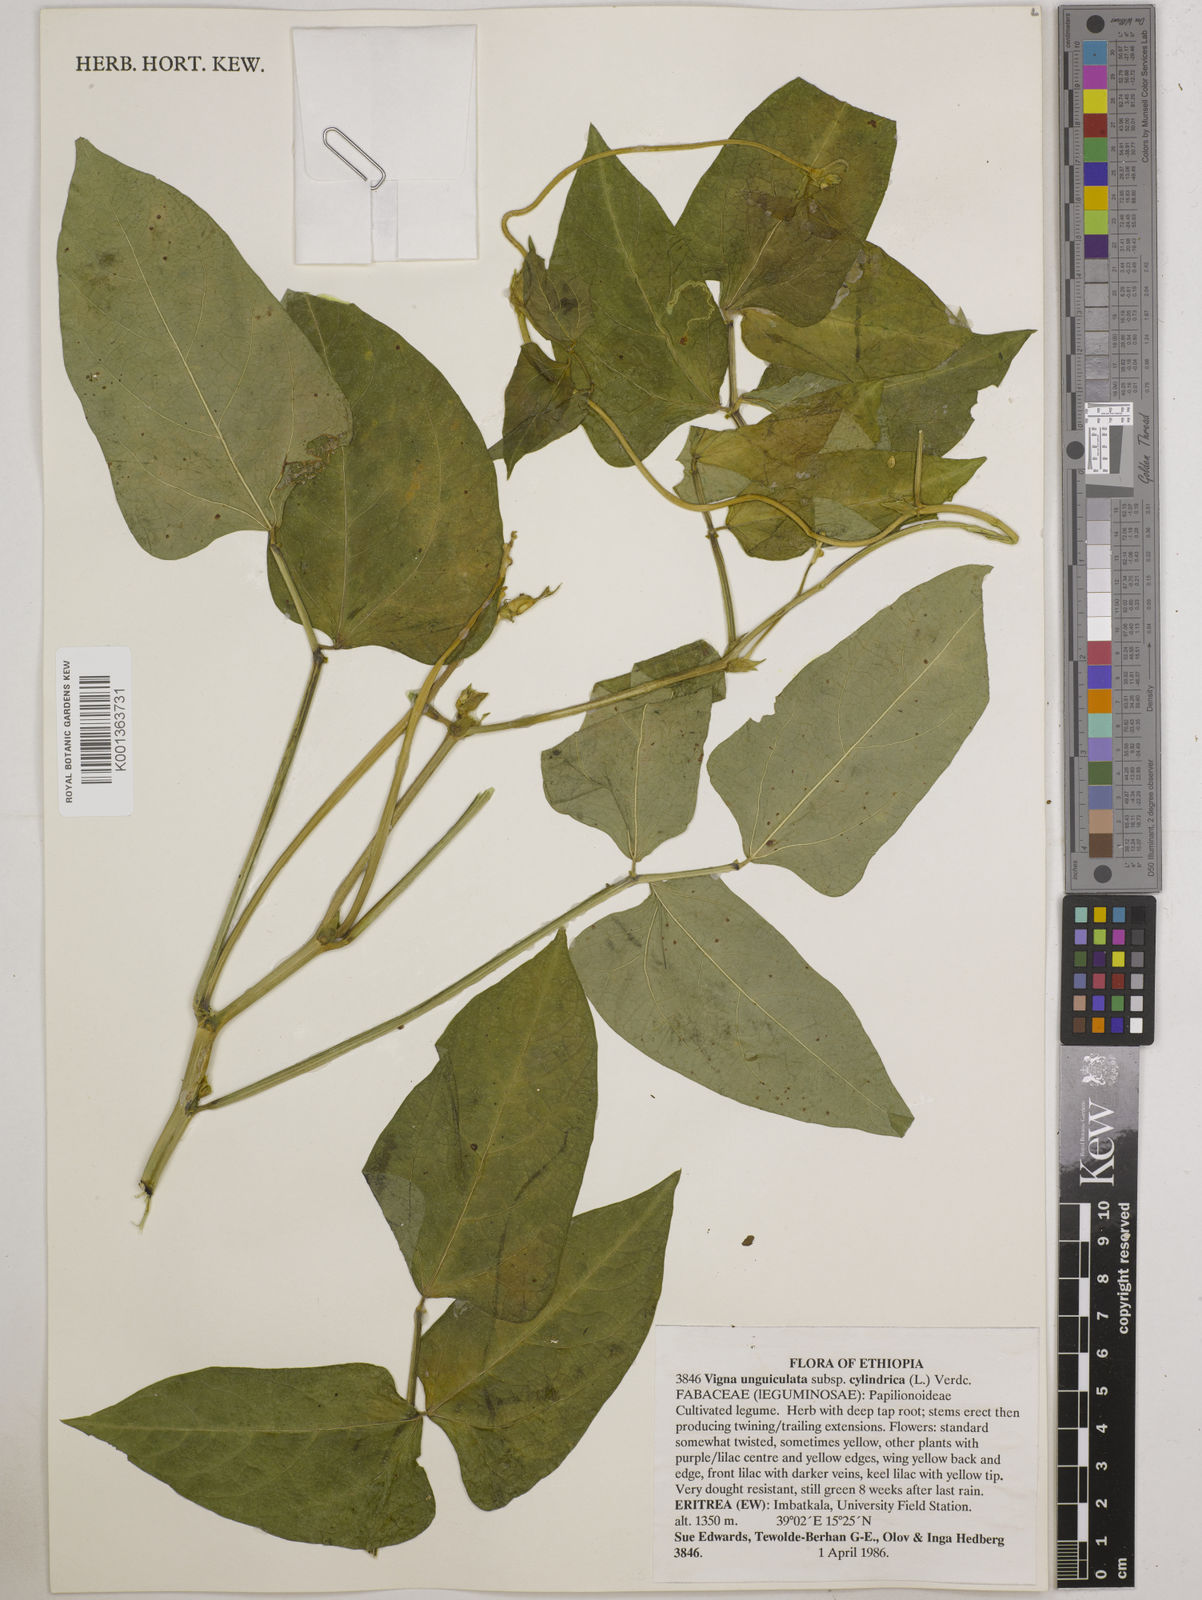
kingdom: Plantae
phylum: Tracheophyta
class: Magnoliopsida
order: Fabales
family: Fabaceae
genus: Vigna
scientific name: Vigna unguiculata
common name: Cowpea
